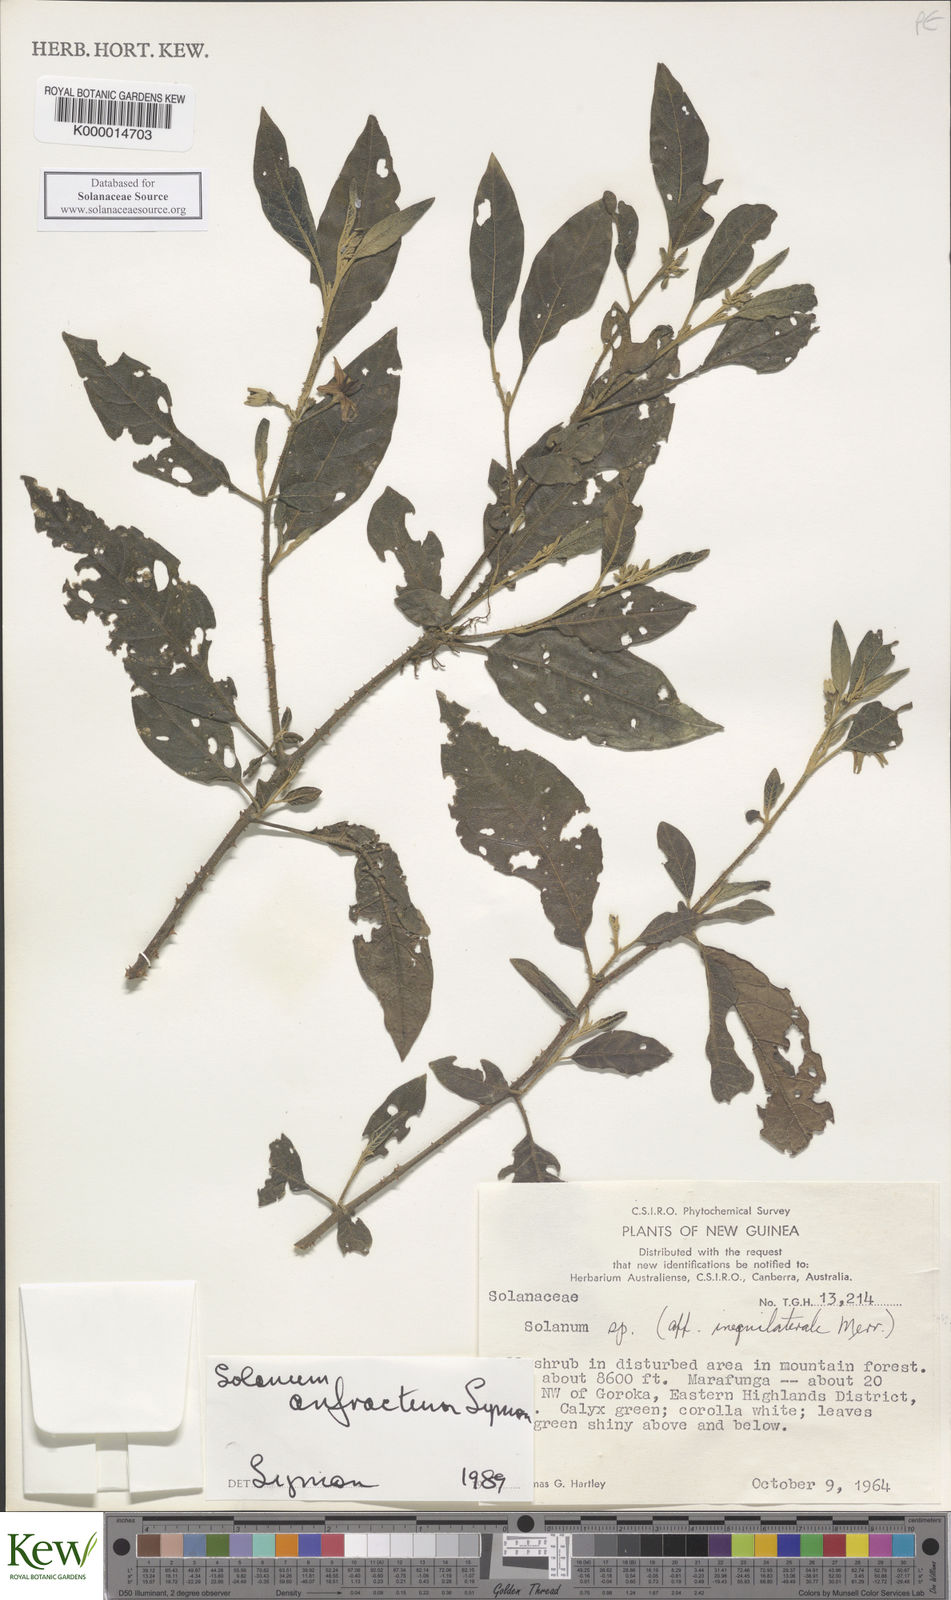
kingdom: Plantae
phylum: Tracheophyta
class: Magnoliopsida
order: Solanales
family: Solanaceae
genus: Solanum
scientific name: Solanum anfractum
